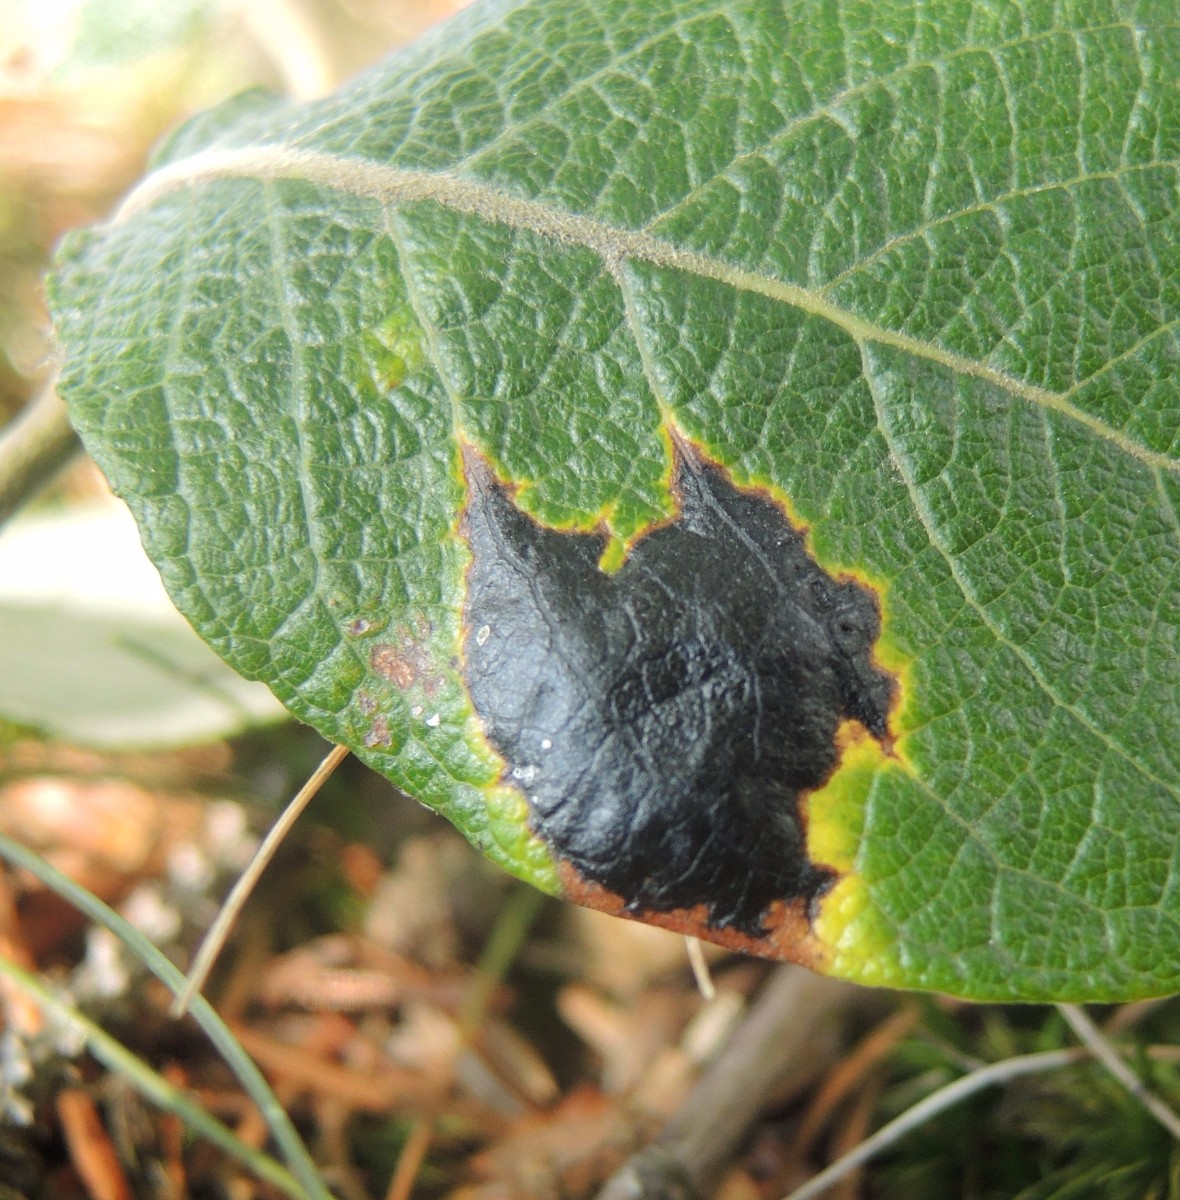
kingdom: Fungi
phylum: Ascomycota
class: Leotiomycetes
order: Rhytismatales
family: Rhytismataceae
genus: Rhytisma
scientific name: Rhytisma salicinum
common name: pile-rynkeplet
